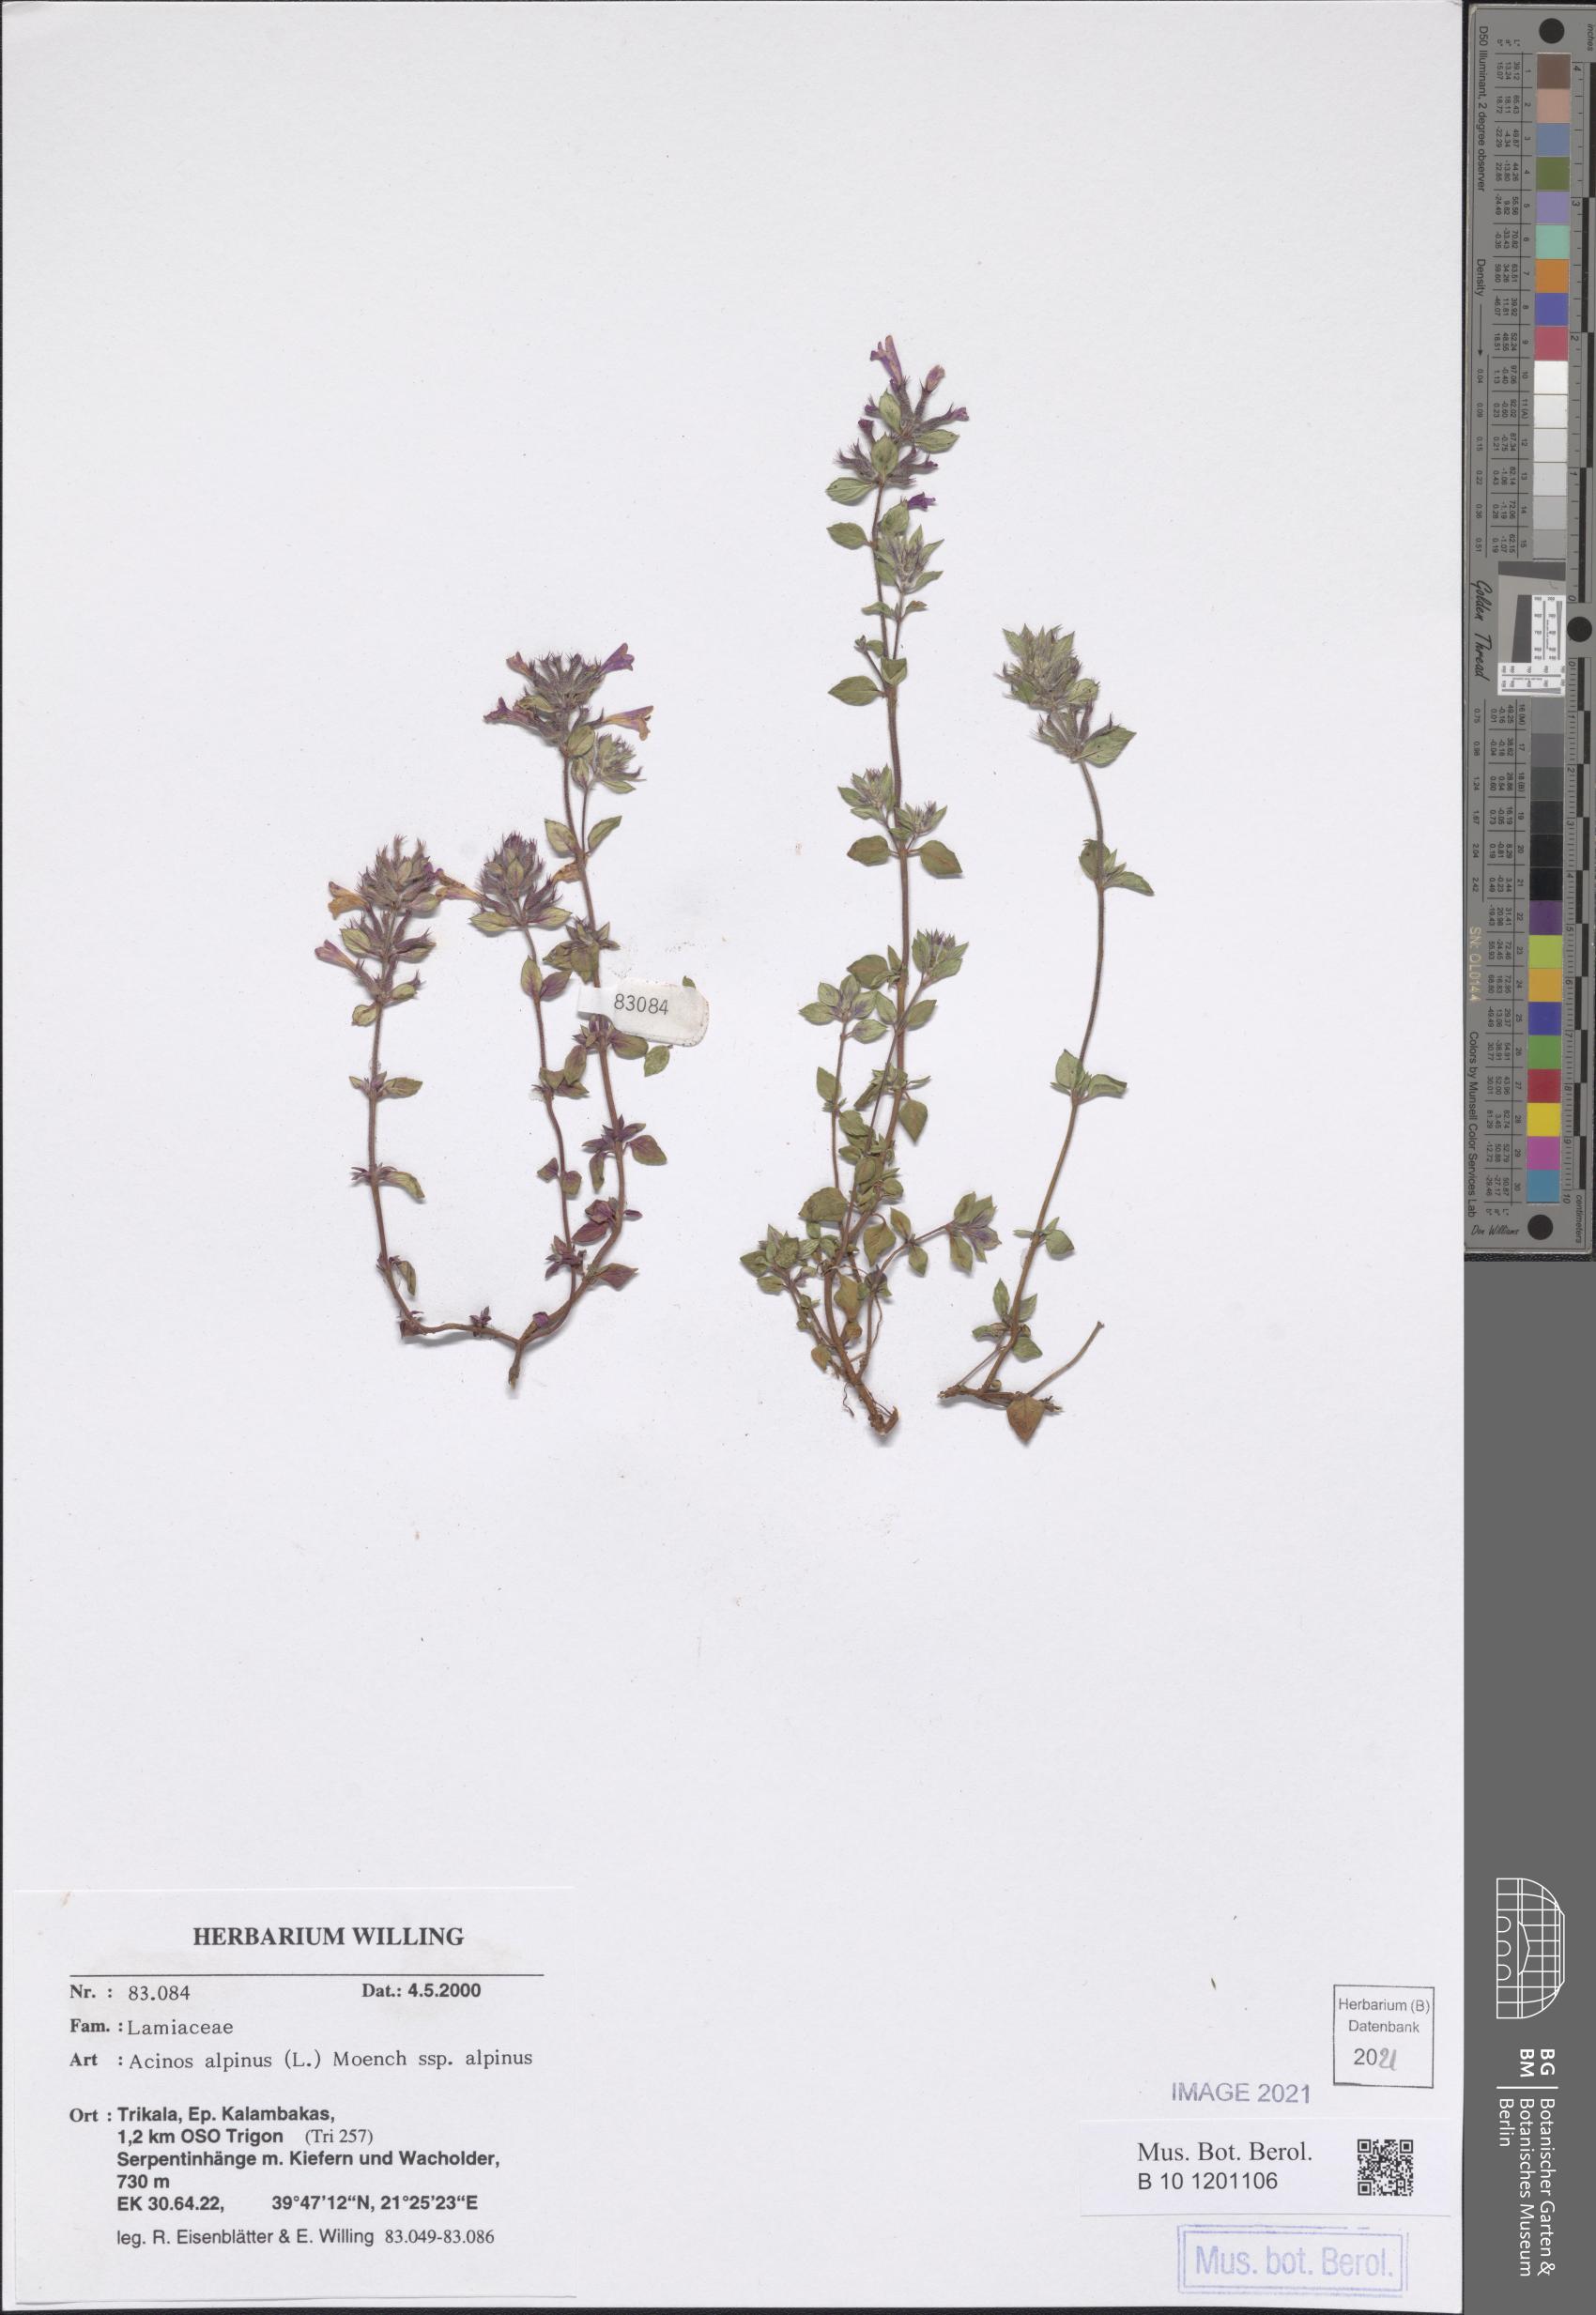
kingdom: Plantae
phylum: Tracheophyta
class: Magnoliopsida
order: Lamiales
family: Lamiaceae
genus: Clinopodium
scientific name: Clinopodium alpinum
